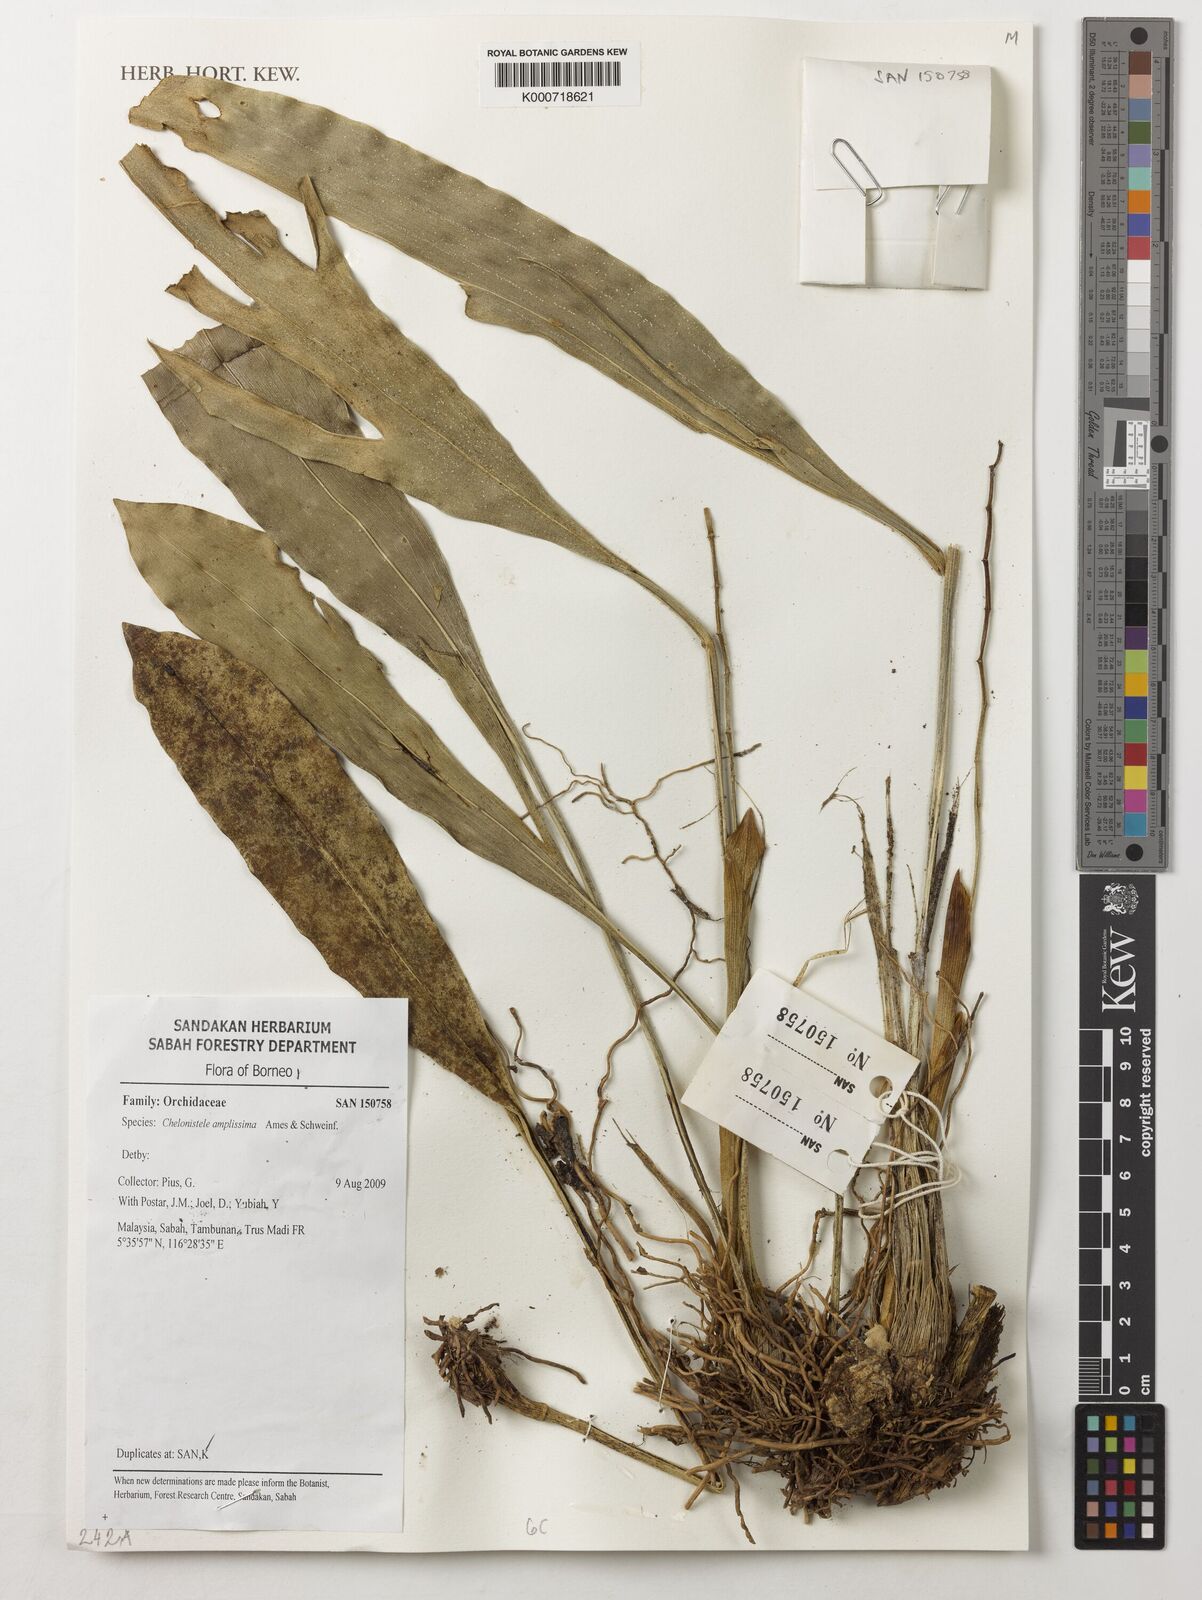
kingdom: Plantae
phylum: Tracheophyta
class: Liliopsida
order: Asparagales
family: Orchidaceae
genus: Coelogyne
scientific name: Coelogyne amplissima
